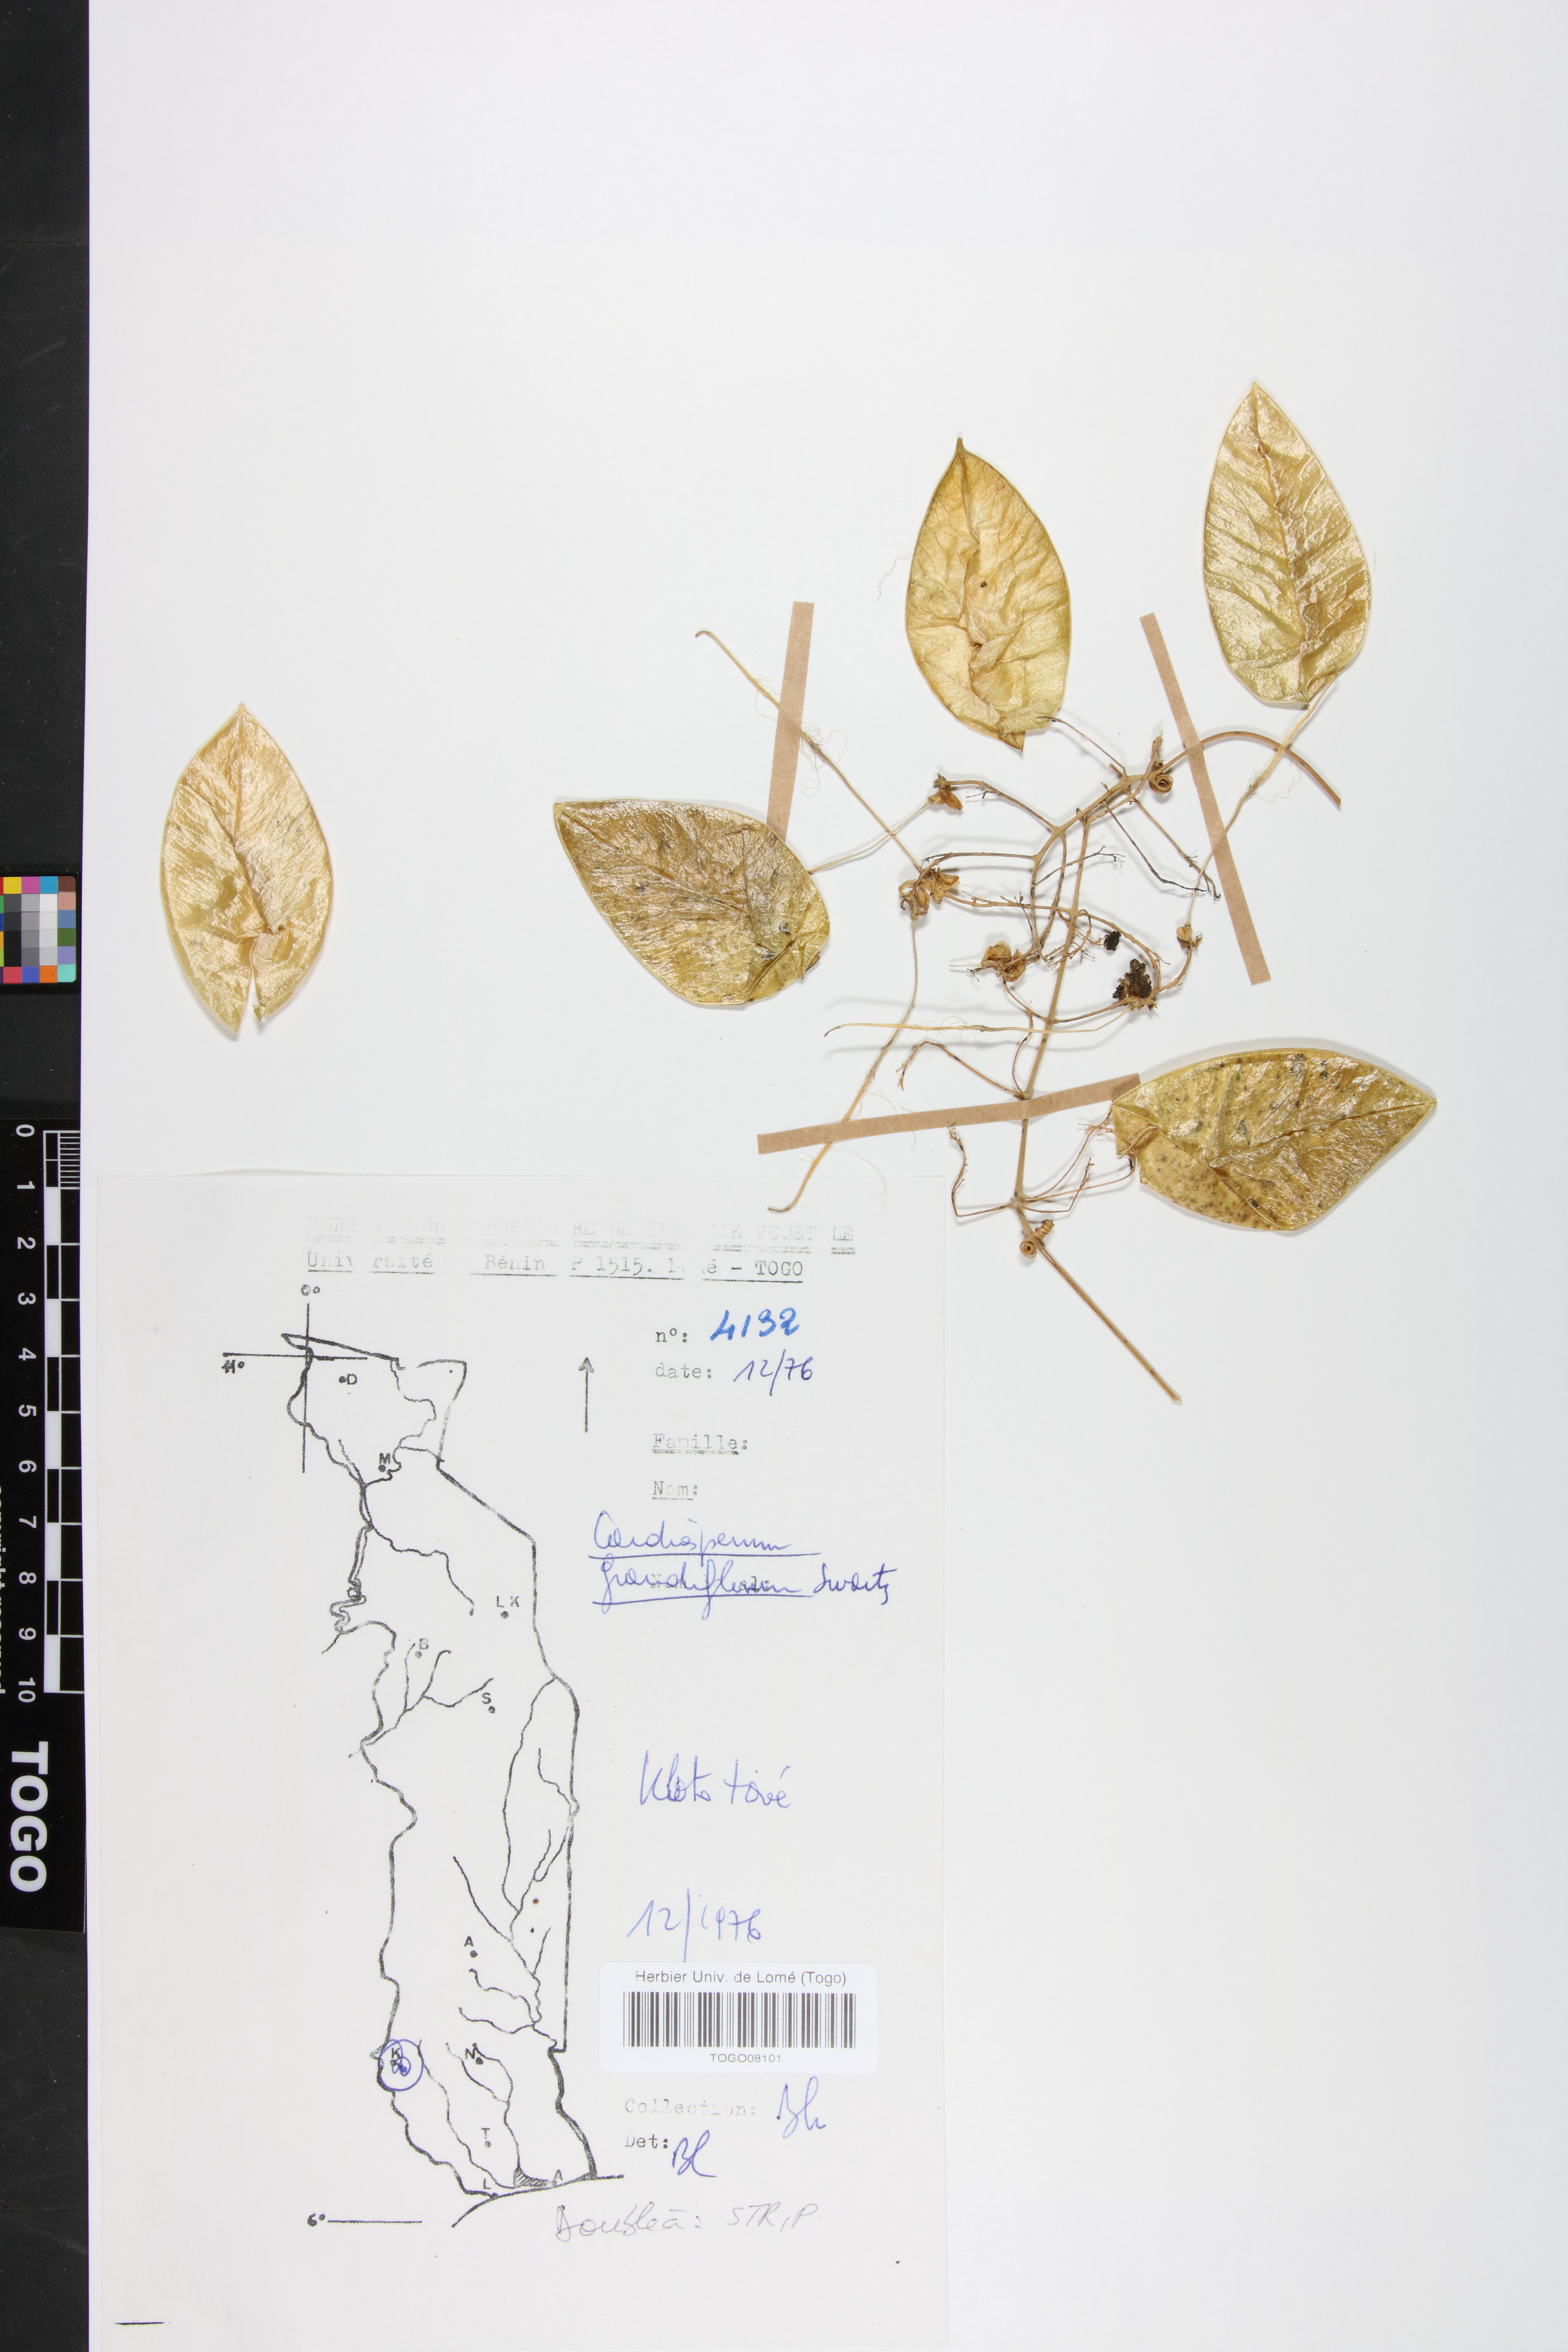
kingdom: Plantae
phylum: Tracheophyta
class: Magnoliopsida
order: Sapindales
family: Sapindaceae
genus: Cardiospermum
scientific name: Cardiospermum grandiflorum
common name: Balloon vine
